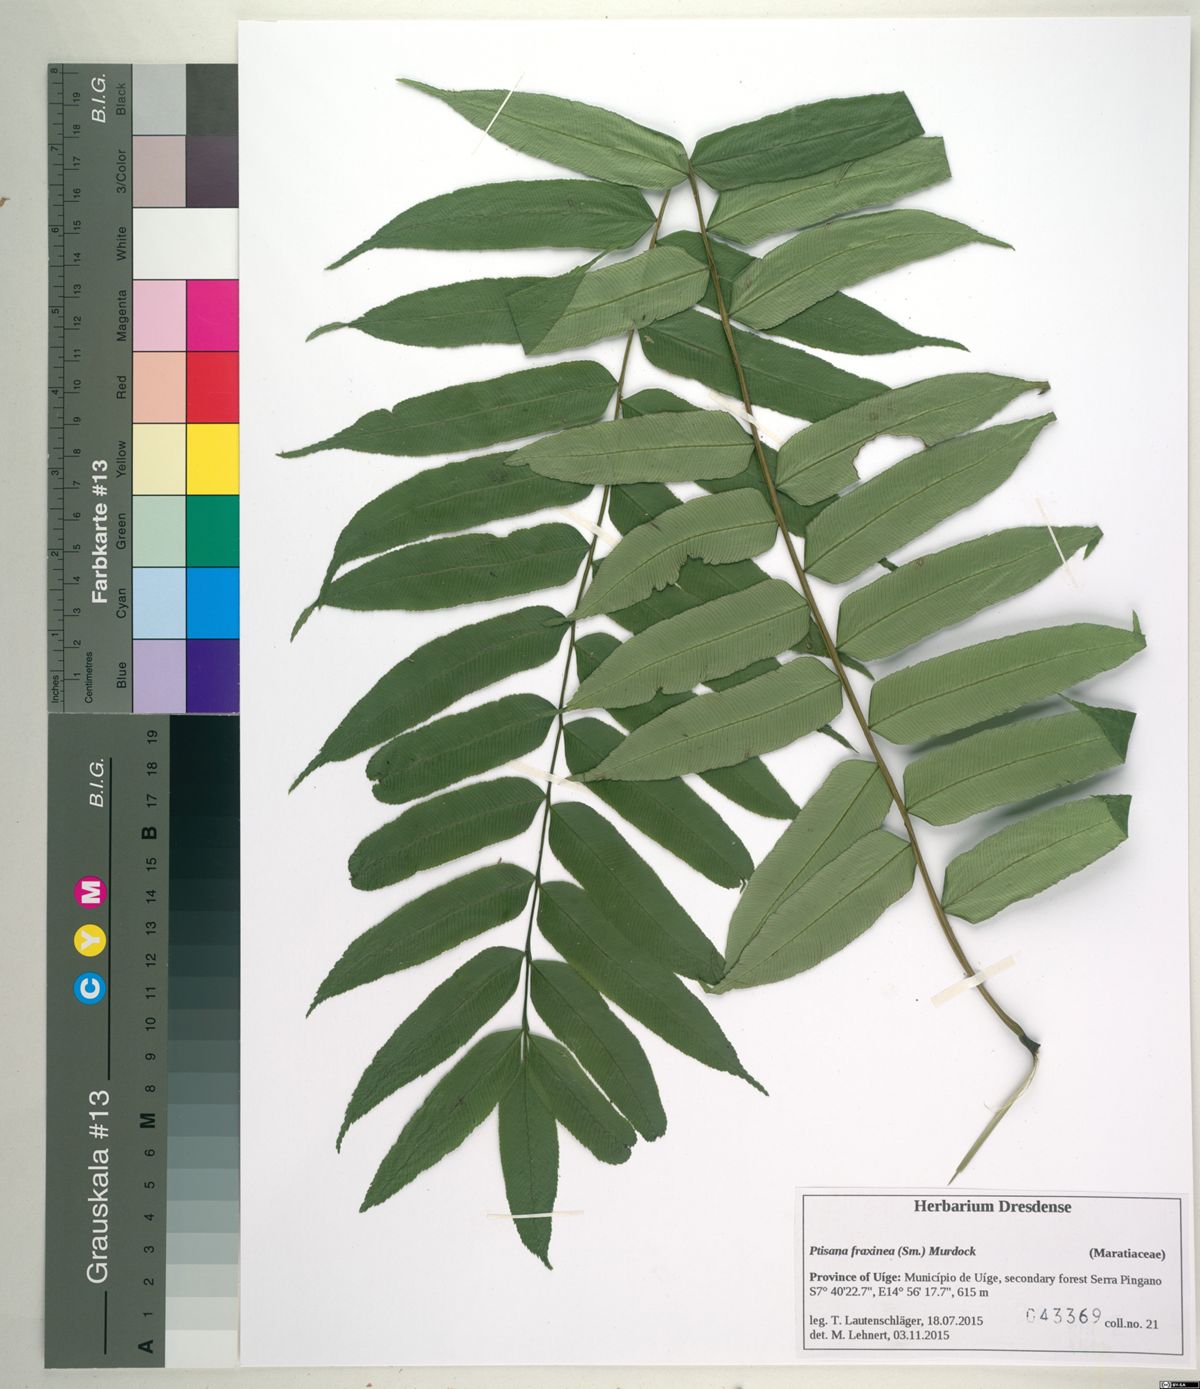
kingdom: Plantae
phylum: Tracheophyta
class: Polypodiopsida
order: Marattiales
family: Marattiaceae
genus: Ptisana
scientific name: Ptisana salicifolia
